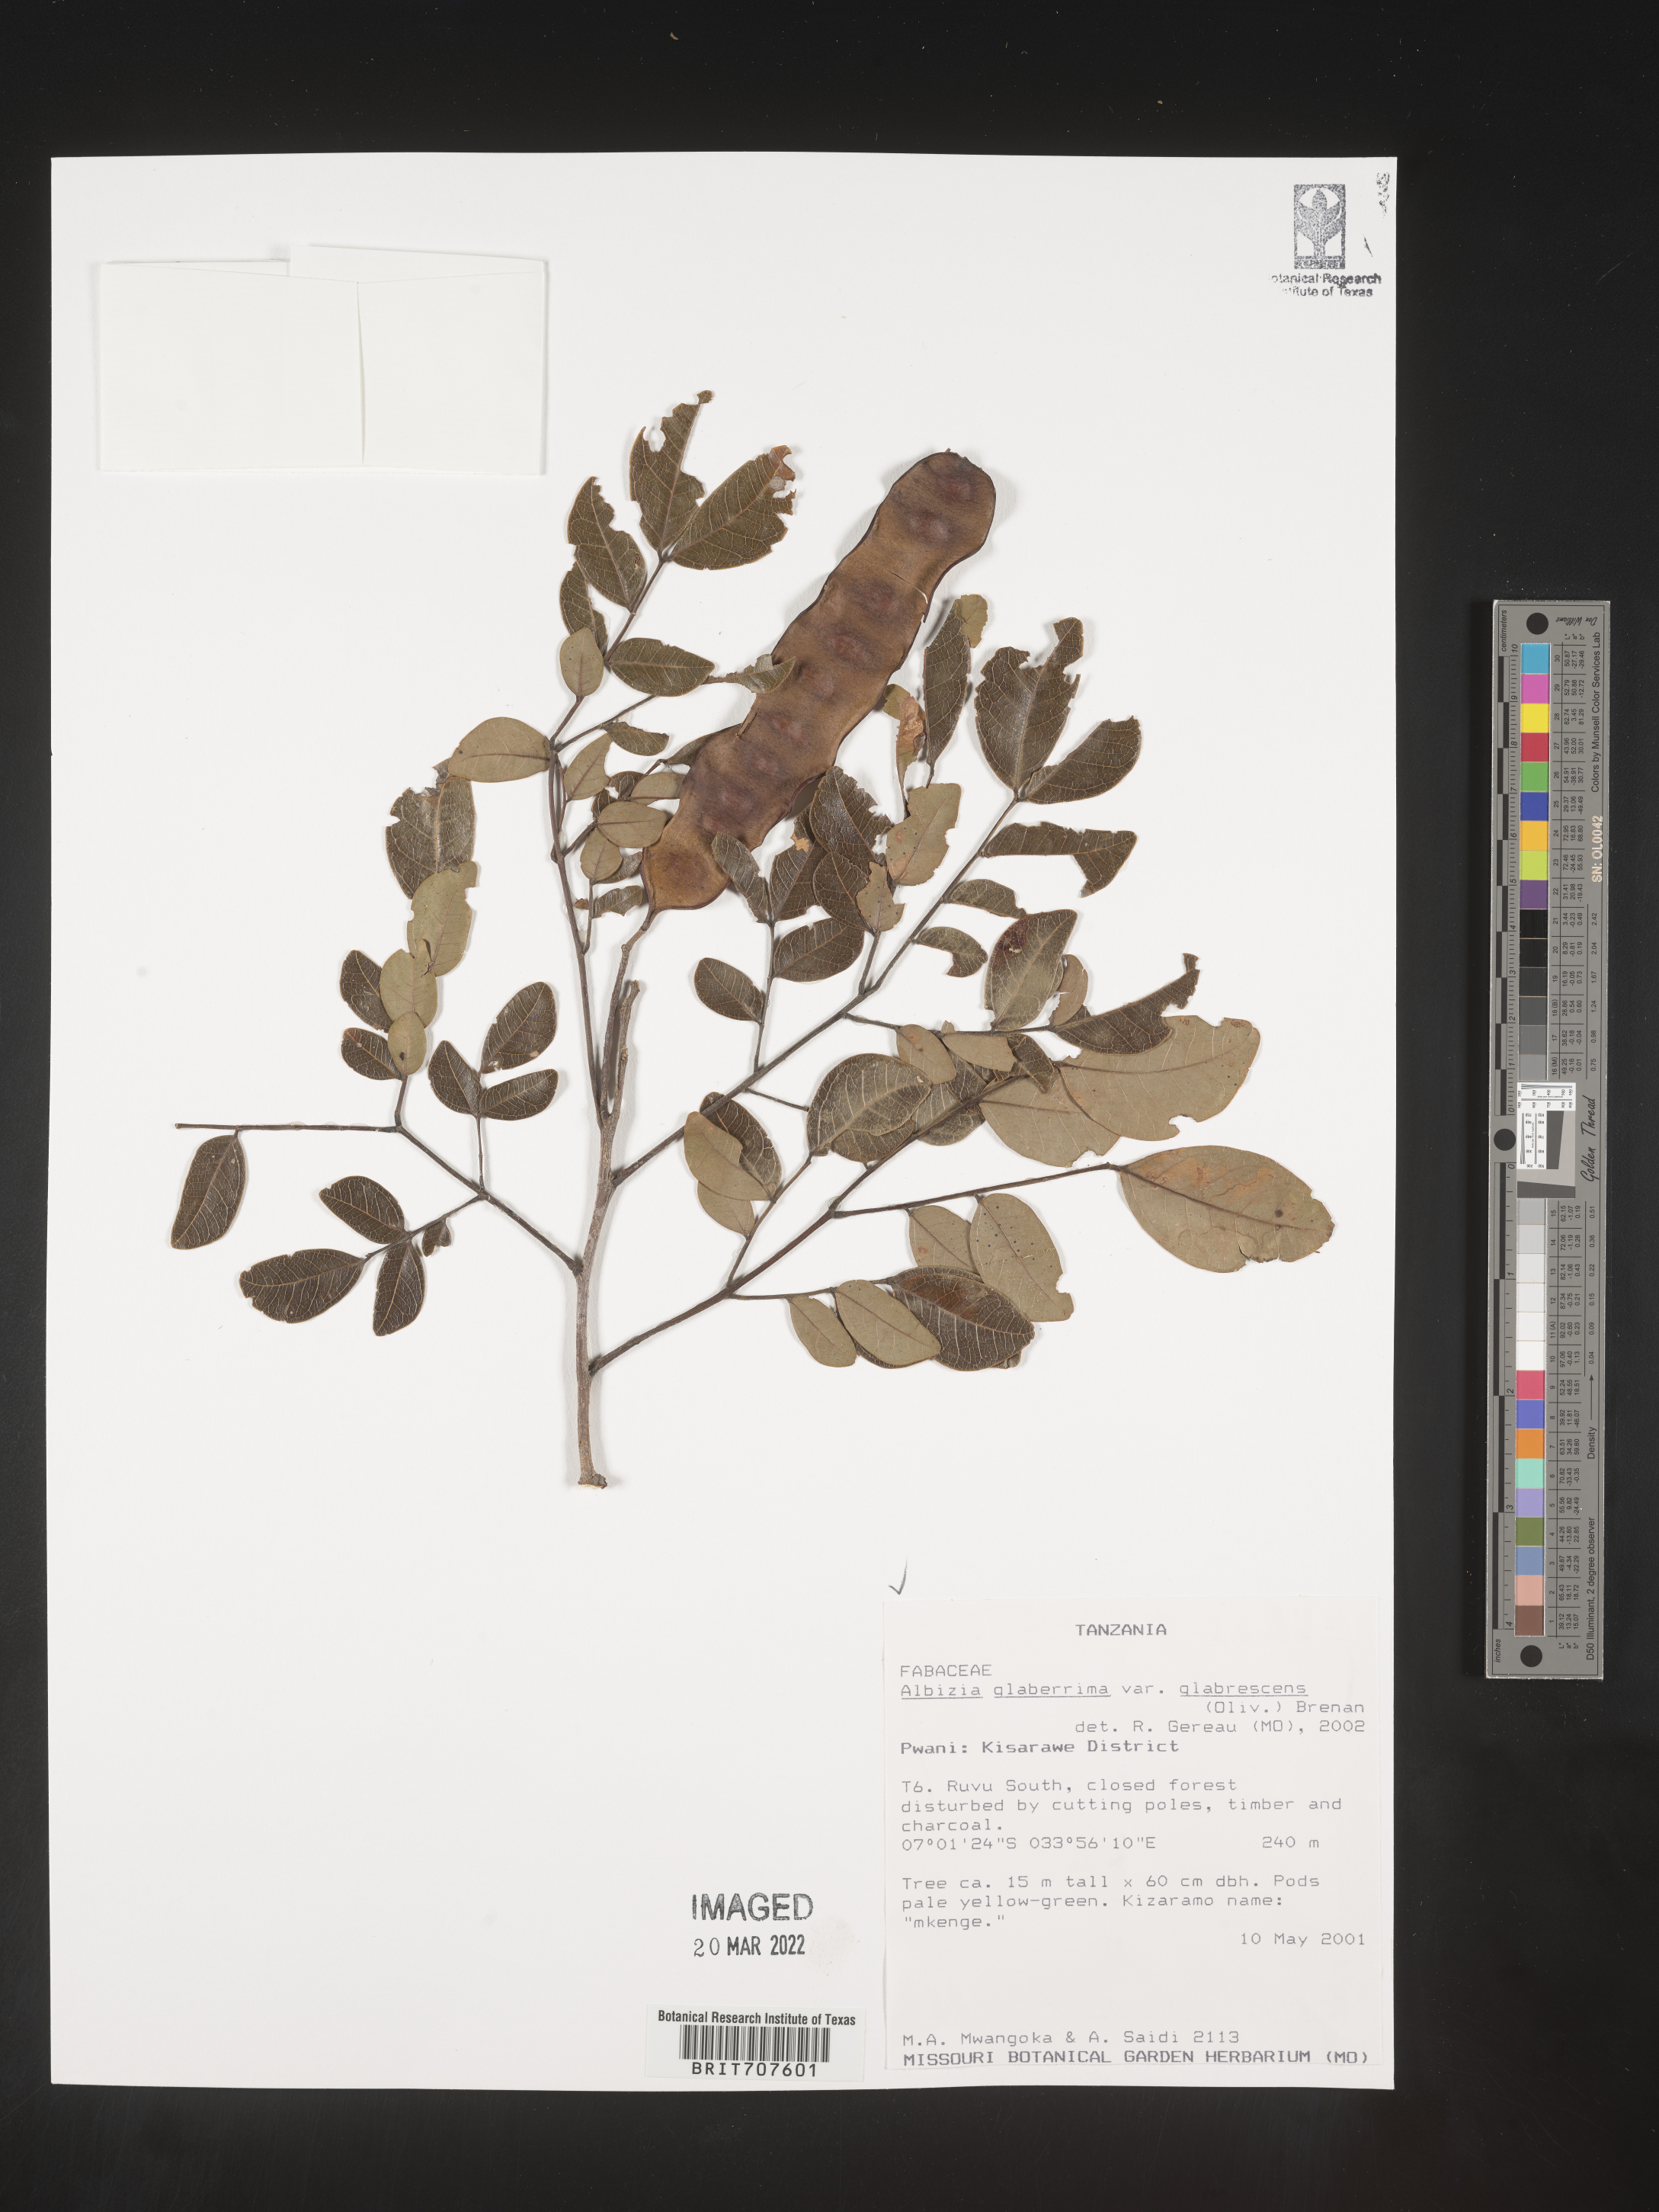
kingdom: Plantae
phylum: Tracheophyta
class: Magnoliopsida
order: Fabales
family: Fabaceae
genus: Albizia
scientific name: Albizia
